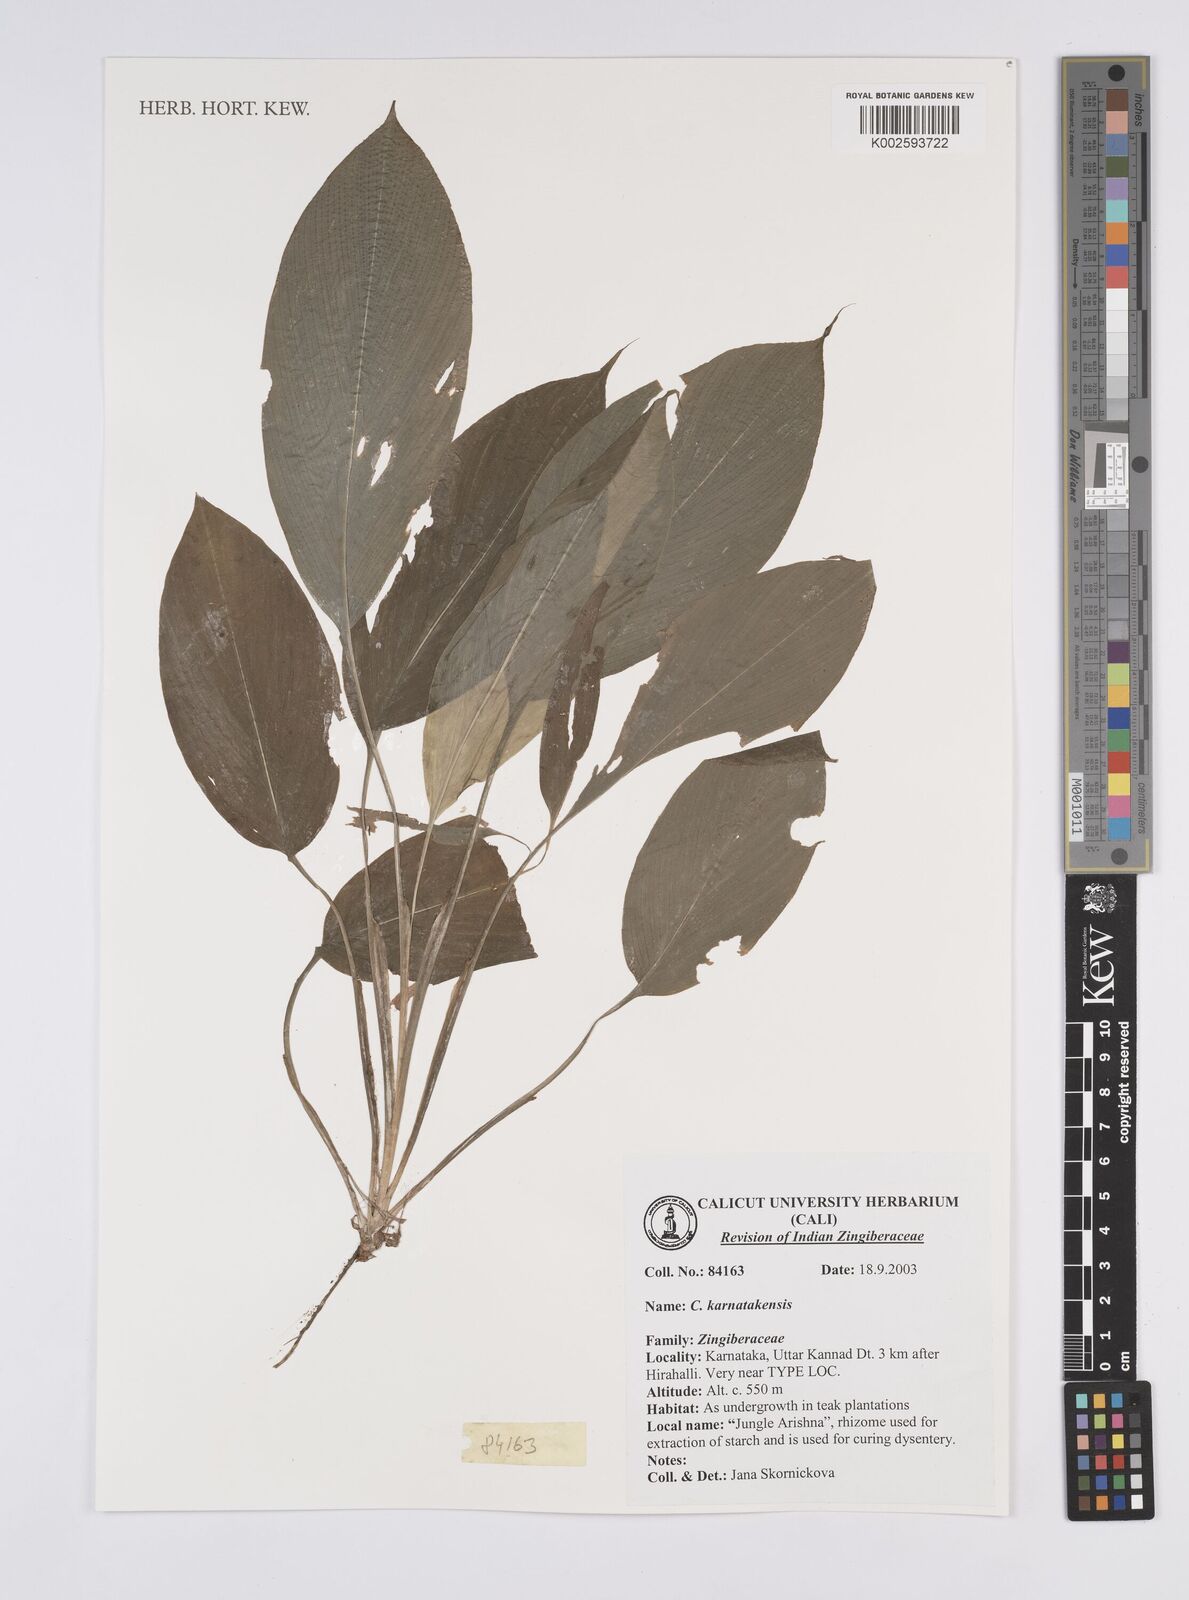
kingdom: Plantae
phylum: Tracheophyta
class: Liliopsida
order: Zingiberales
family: Zingiberaceae
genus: Curcuma
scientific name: Curcuma karnatakensis
